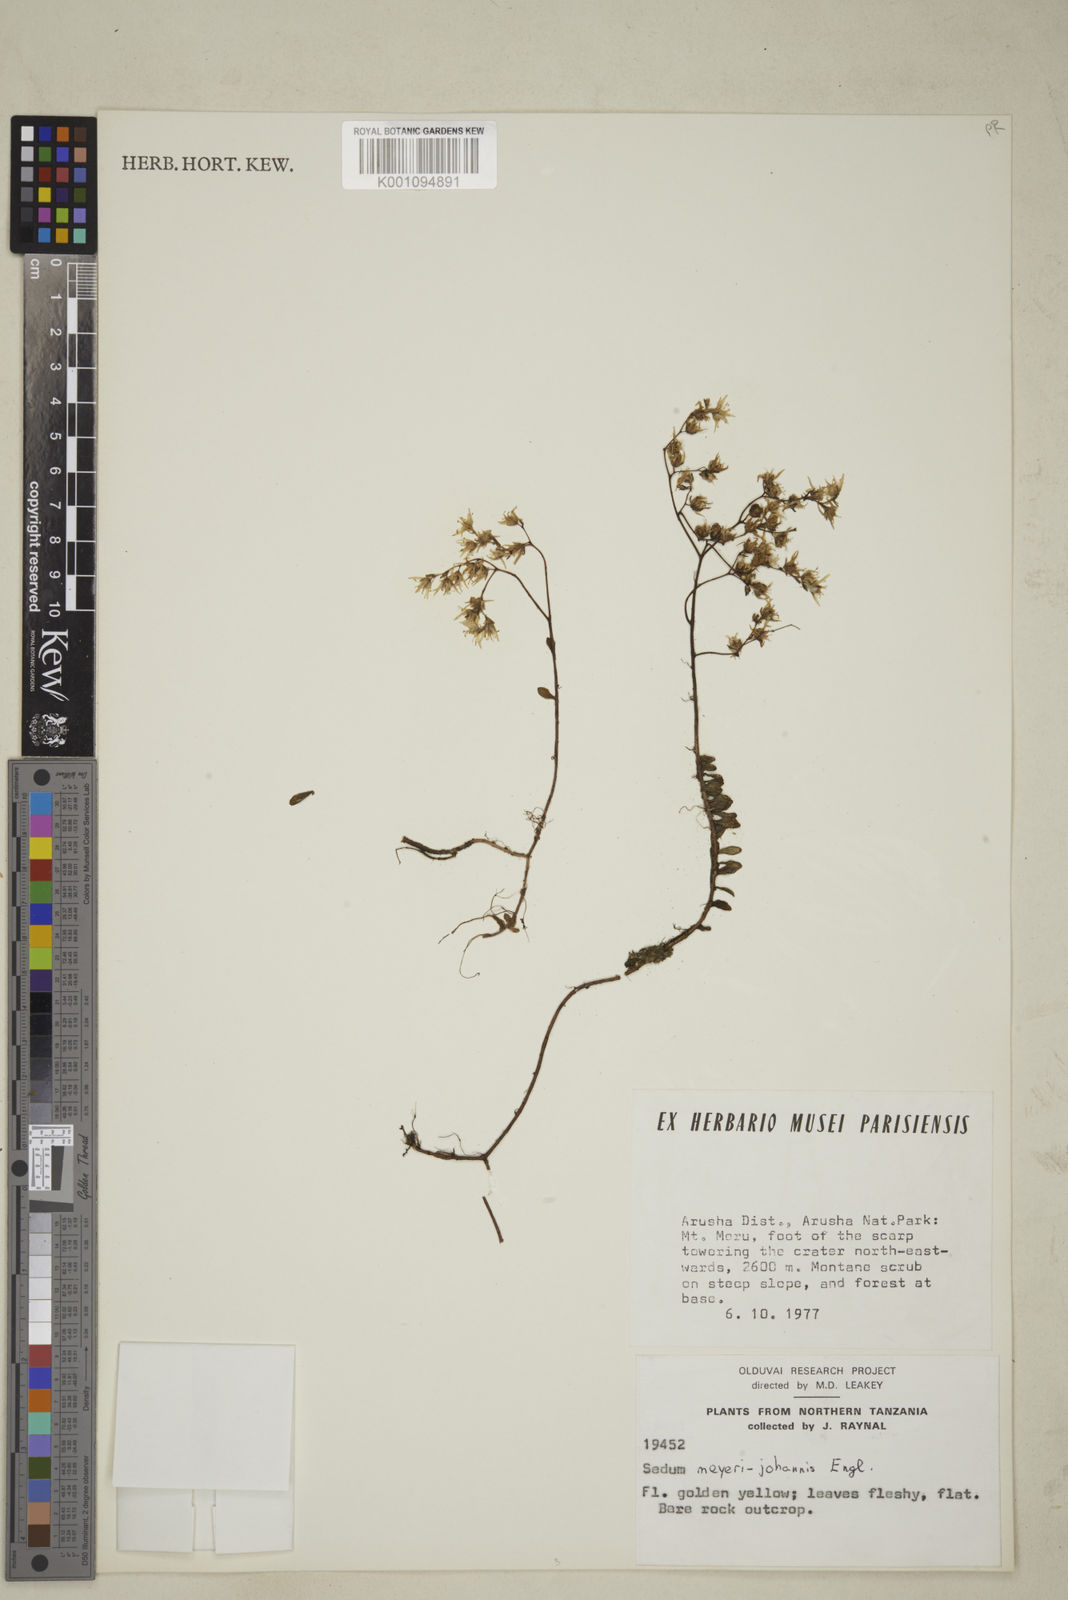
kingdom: Plantae
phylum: Tracheophyta
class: Magnoliopsida
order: Saxifragales
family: Crassulaceae
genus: Sedum
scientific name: Sedum meyeri-johannis
